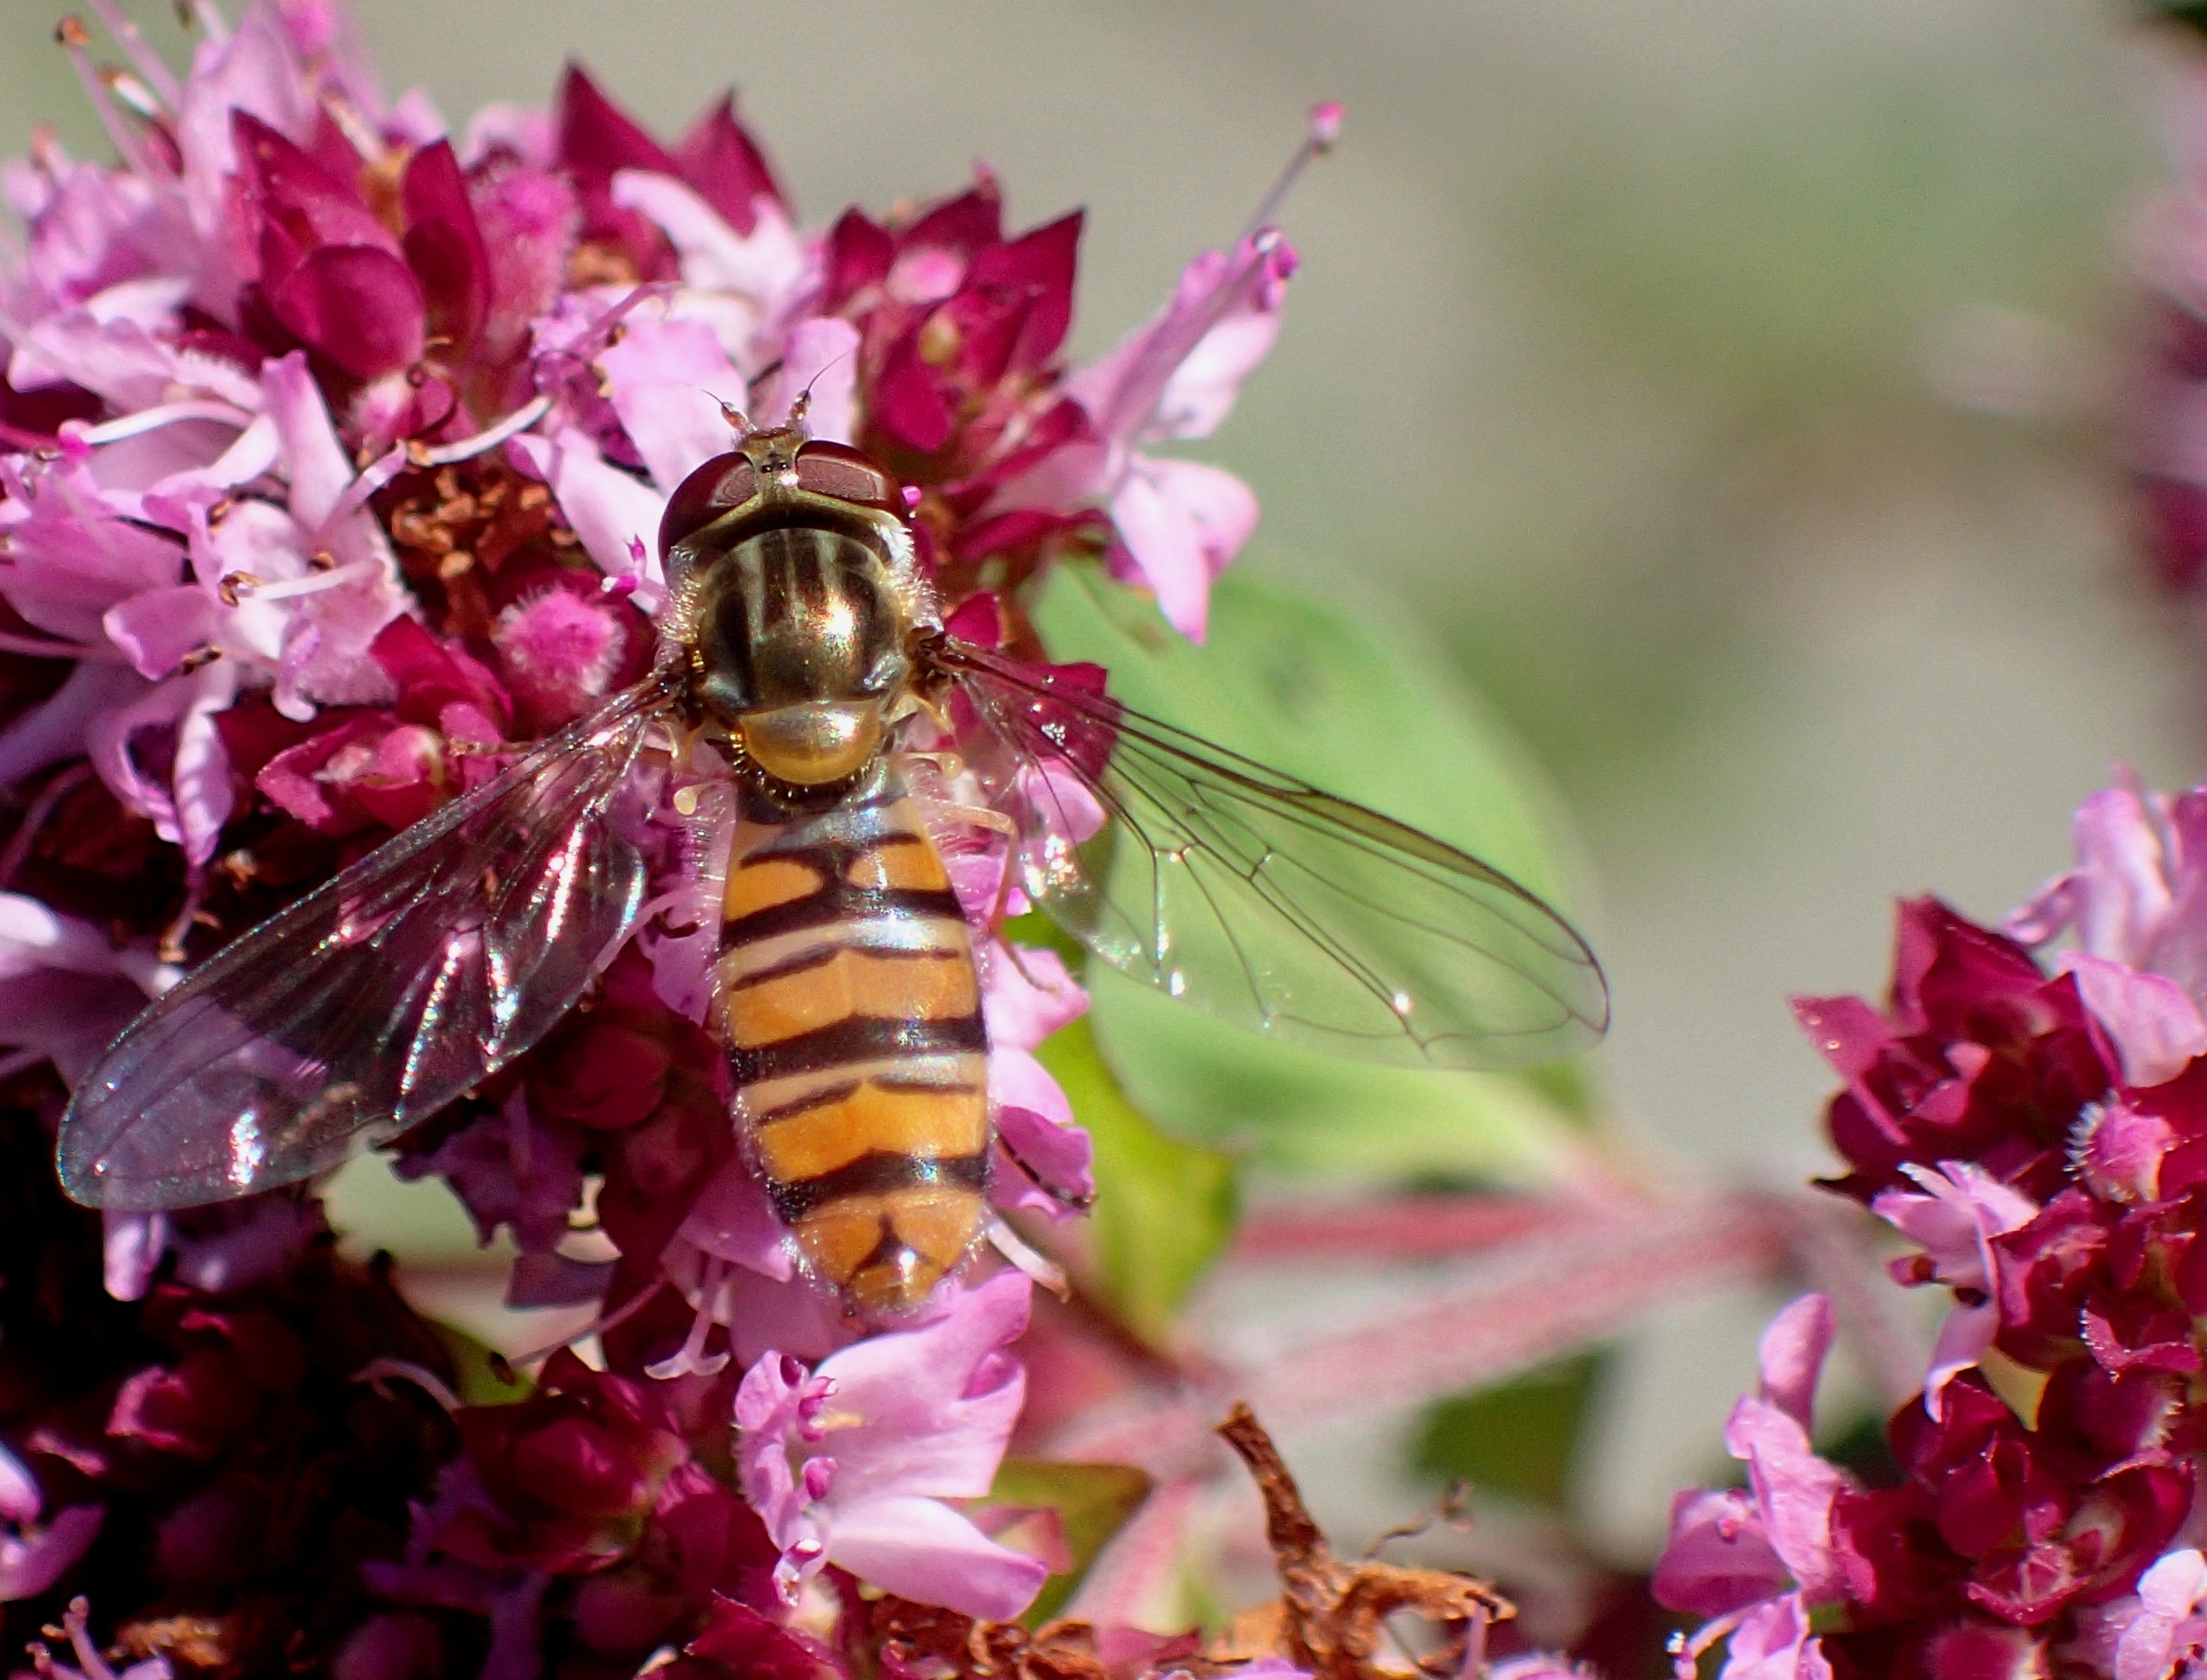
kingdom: Animalia
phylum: Arthropoda
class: Insecta
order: Diptera
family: Syrphidae
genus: Episyrphus
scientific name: Episyrphus balteatus
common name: Dobbeltbåndet svirreflue
